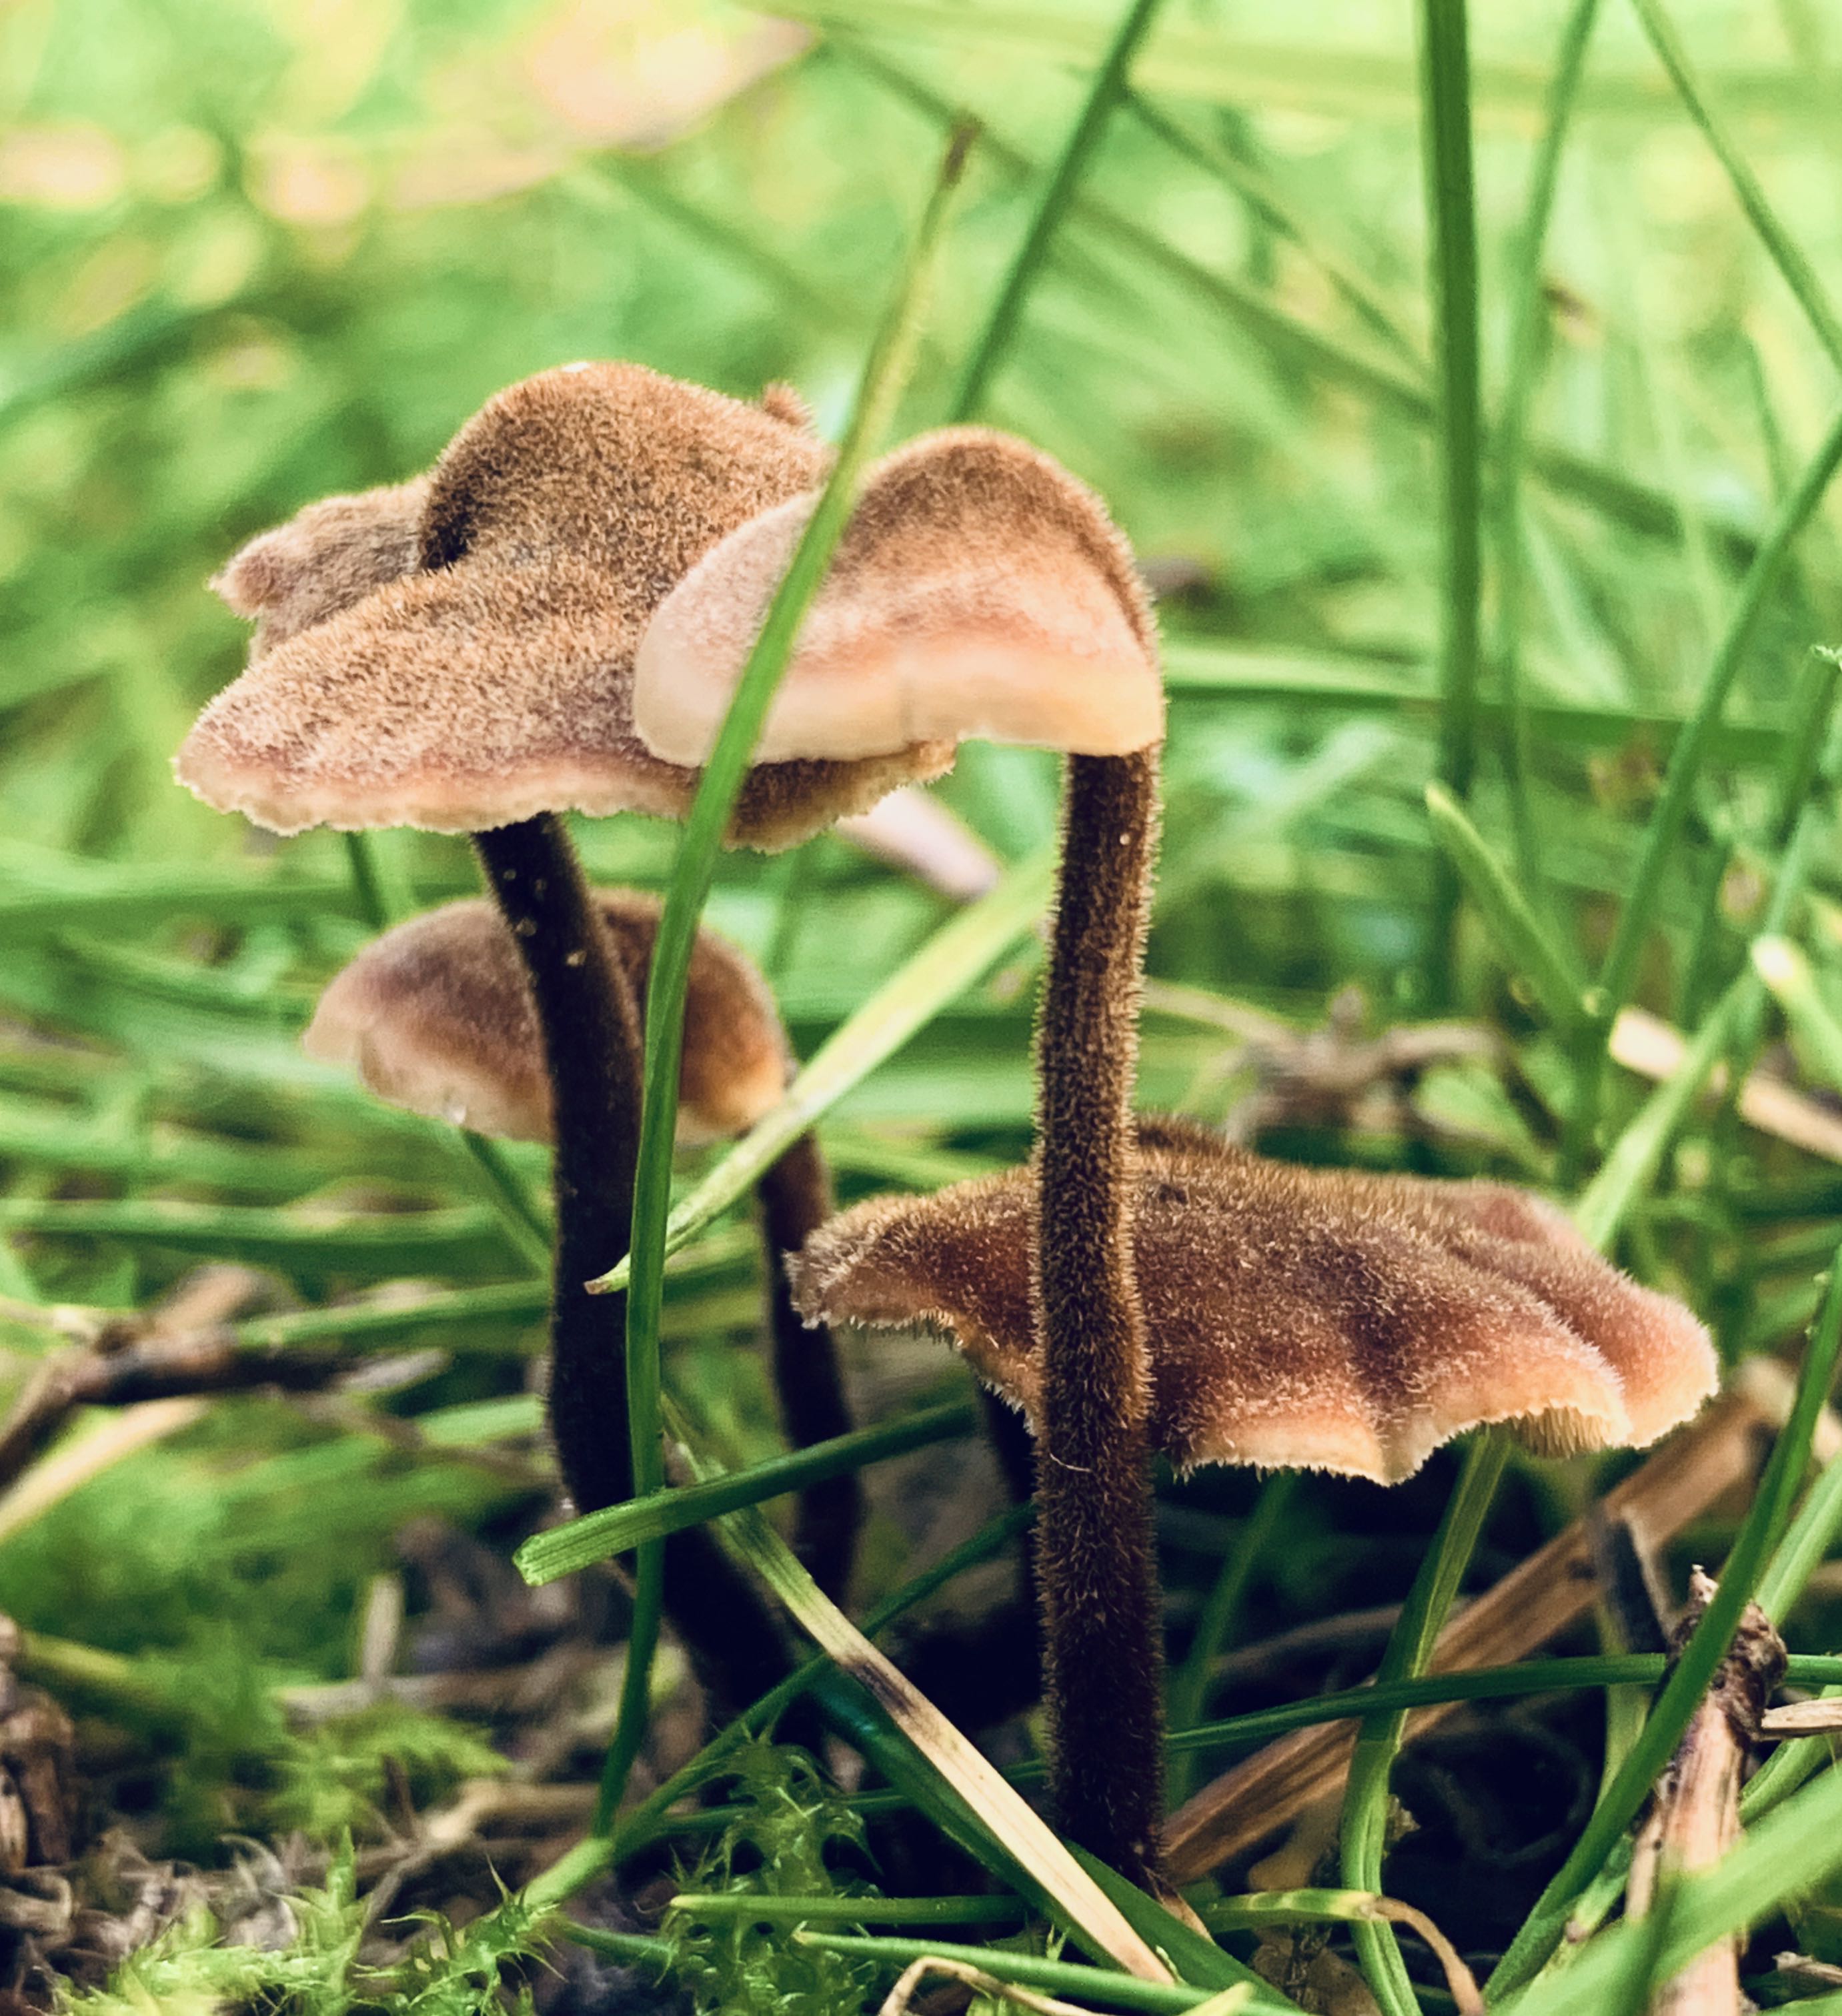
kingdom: Fungi
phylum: Basidiomycota
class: Agaricomycetes
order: Russulales
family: Auriscalpiaceae
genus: Auriscalpium
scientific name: Auriscalpium vulgare
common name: koglepigsvamp
